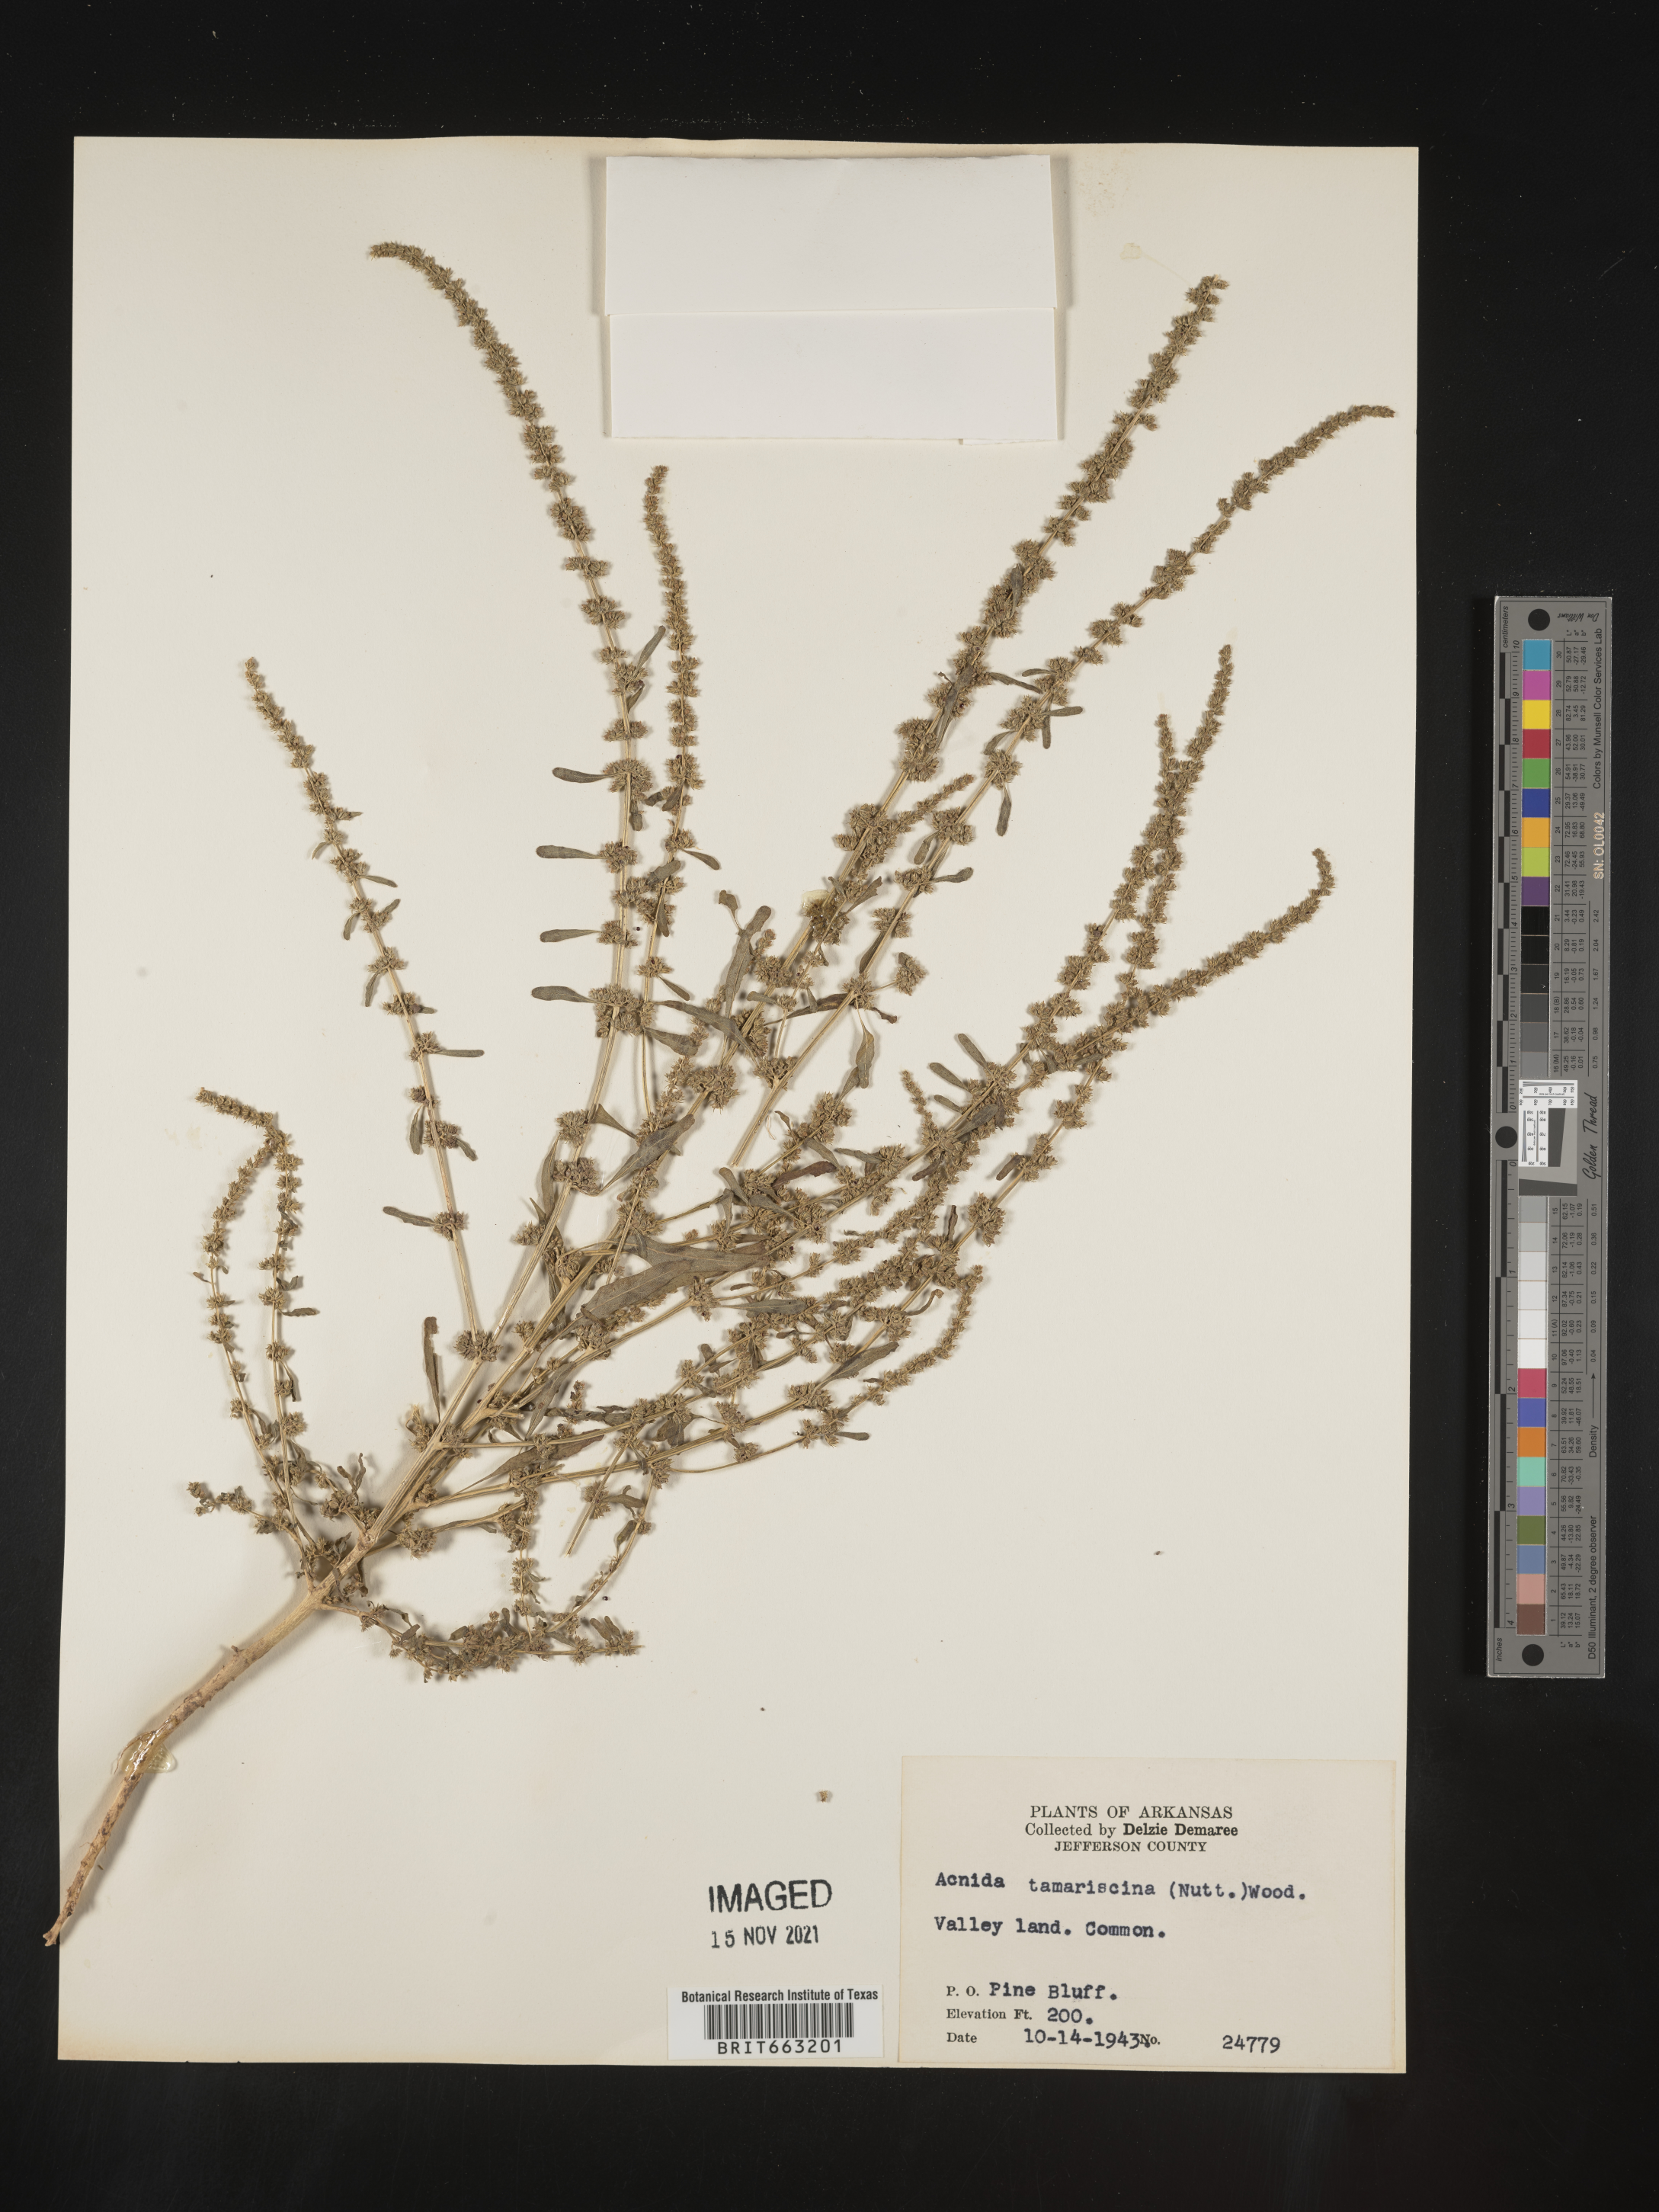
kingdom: Plantae
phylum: Tracheophyta
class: Magnoliopsida
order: Caryophyllales
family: Amaranthaceae
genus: Amaranthus
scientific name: Amaranthus tamariscinus
